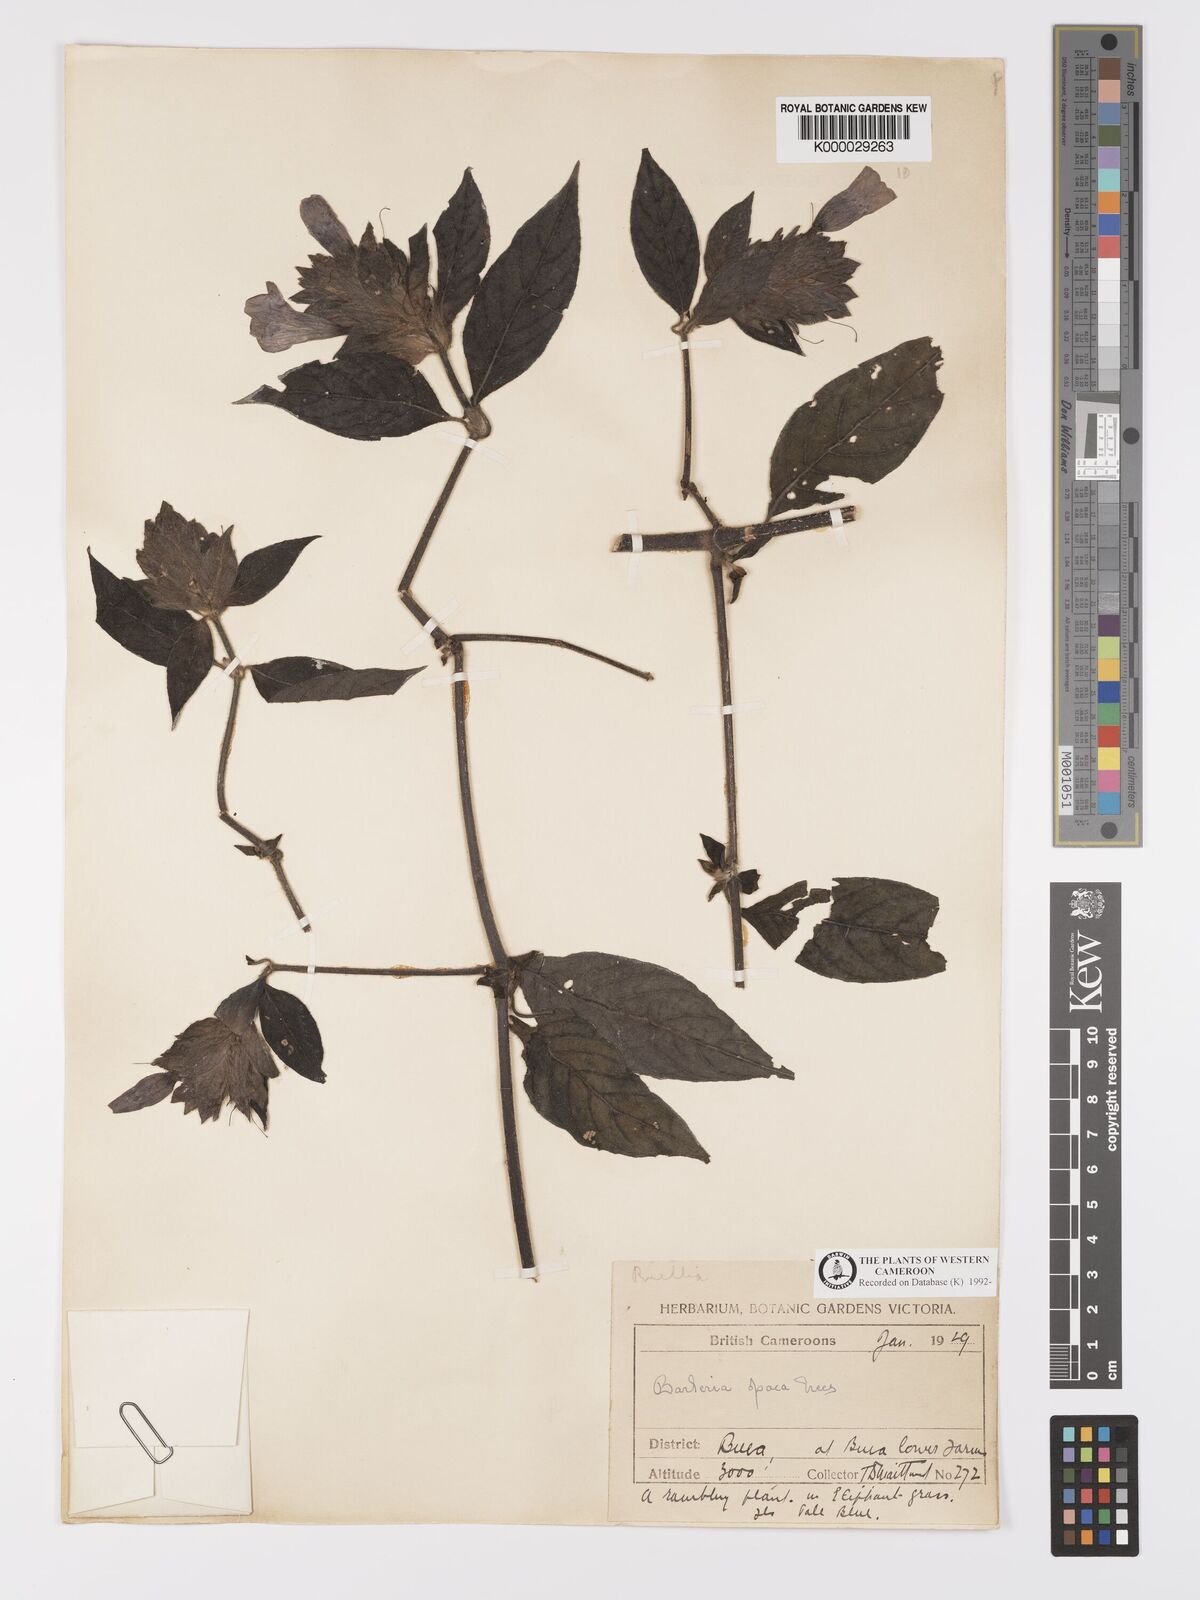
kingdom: Plantae
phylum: Tracheophyta
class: Magnoliopsida
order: Lamiales
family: Acanthaceae
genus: Barleria
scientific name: Barleria opaca
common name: Kwahu
